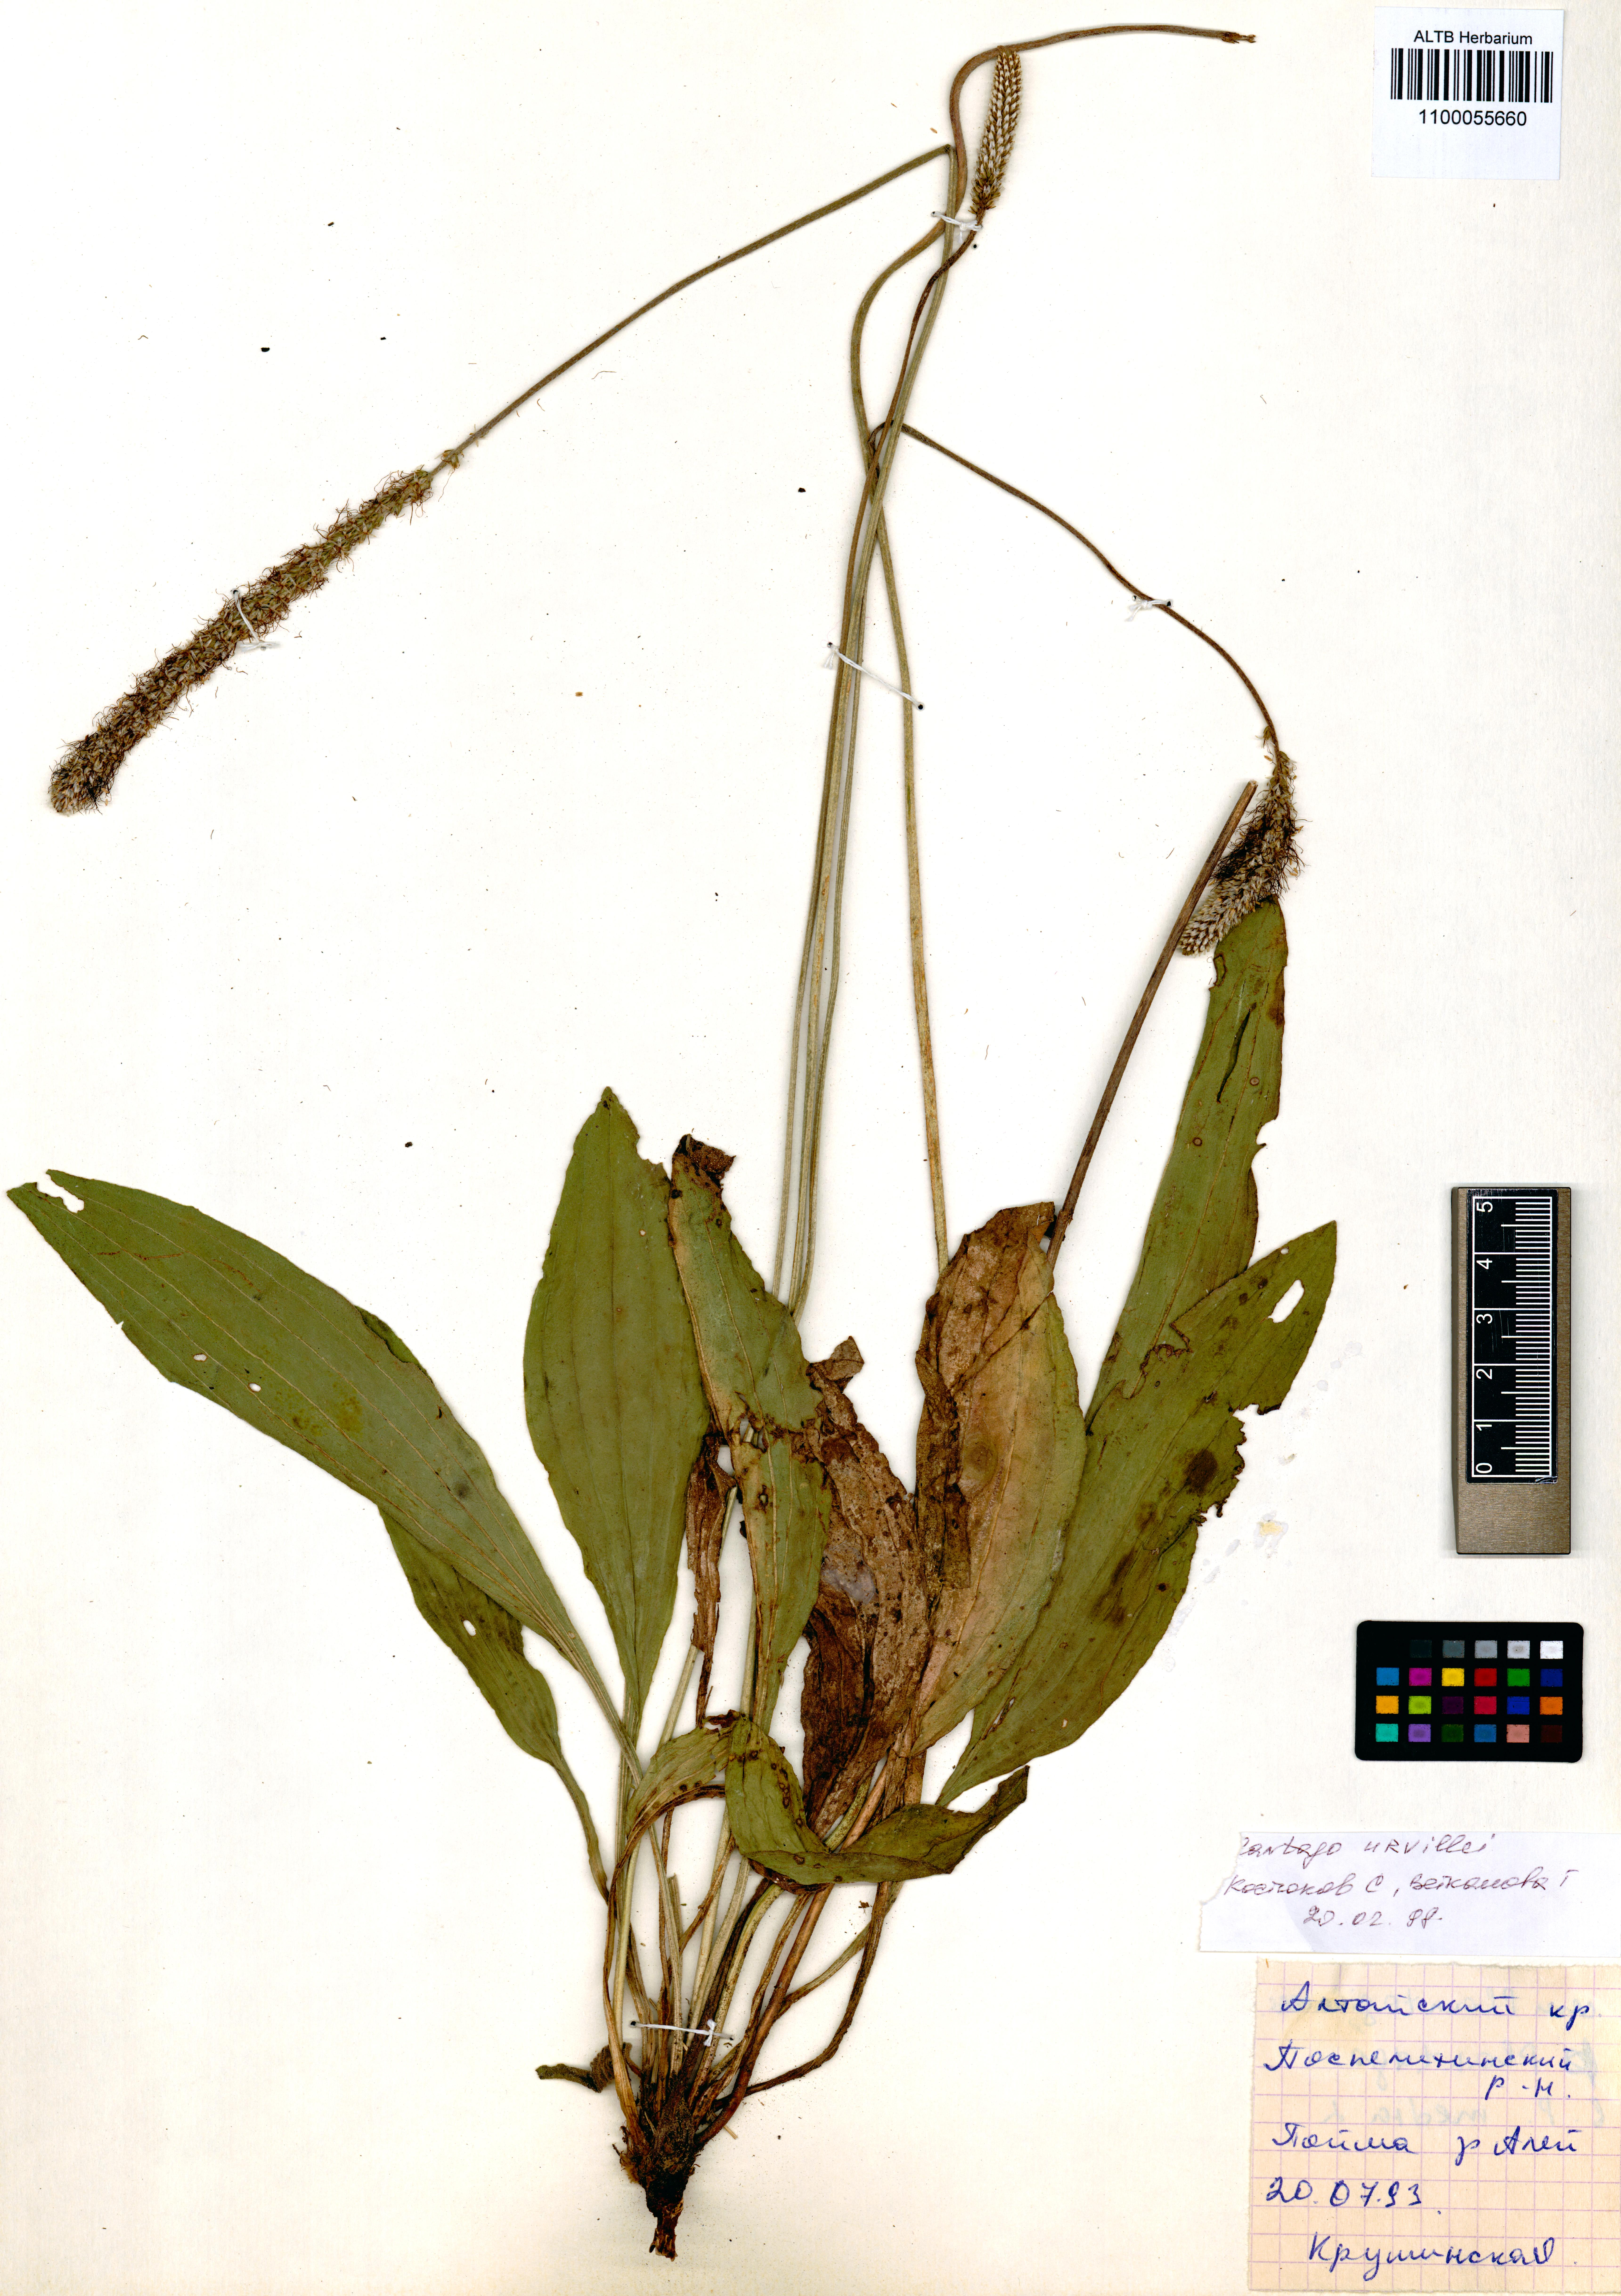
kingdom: Plantae
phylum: Tracheophyta
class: Magnoliopsida
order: Lamiales
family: Plantaginaceae
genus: Plantago
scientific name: Plantago urvillei
